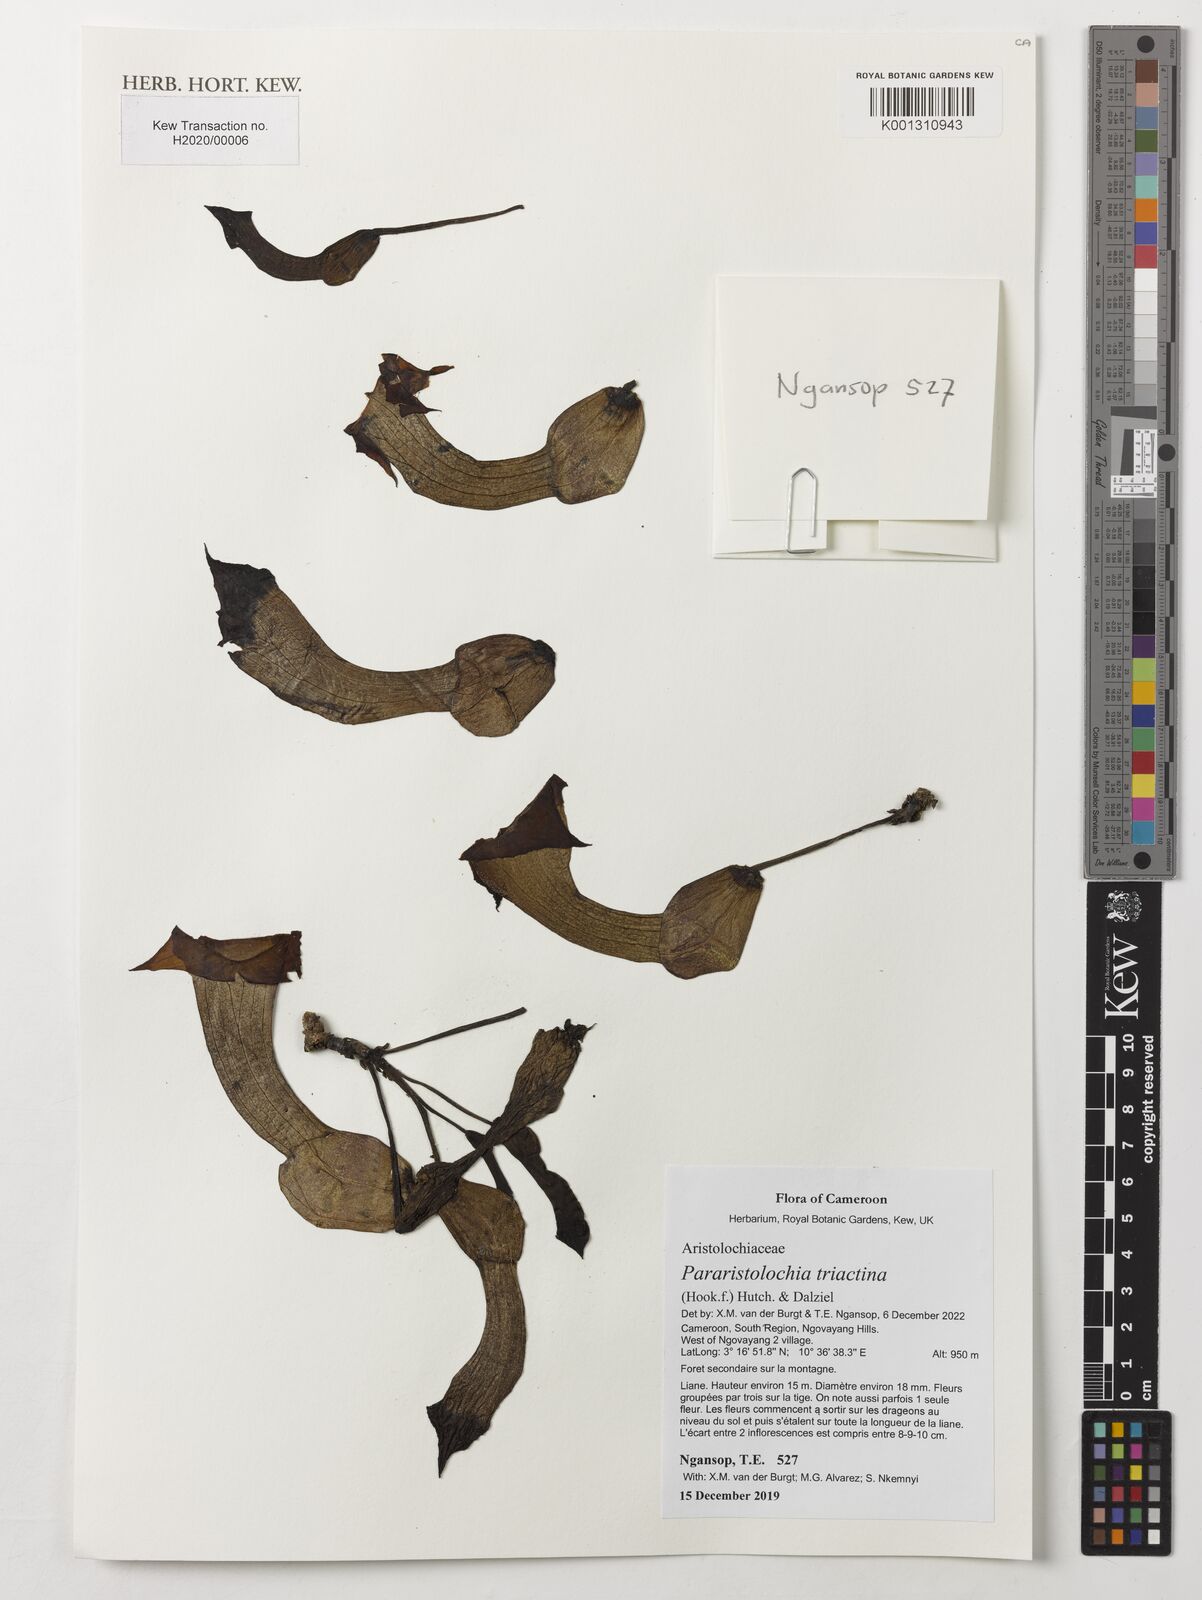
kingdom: Plantae
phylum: Tracheophyta
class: Magnoliopsida
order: Piperales
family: Aristolochiaceae
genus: Aristolochia
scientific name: Aristolochia triactina
